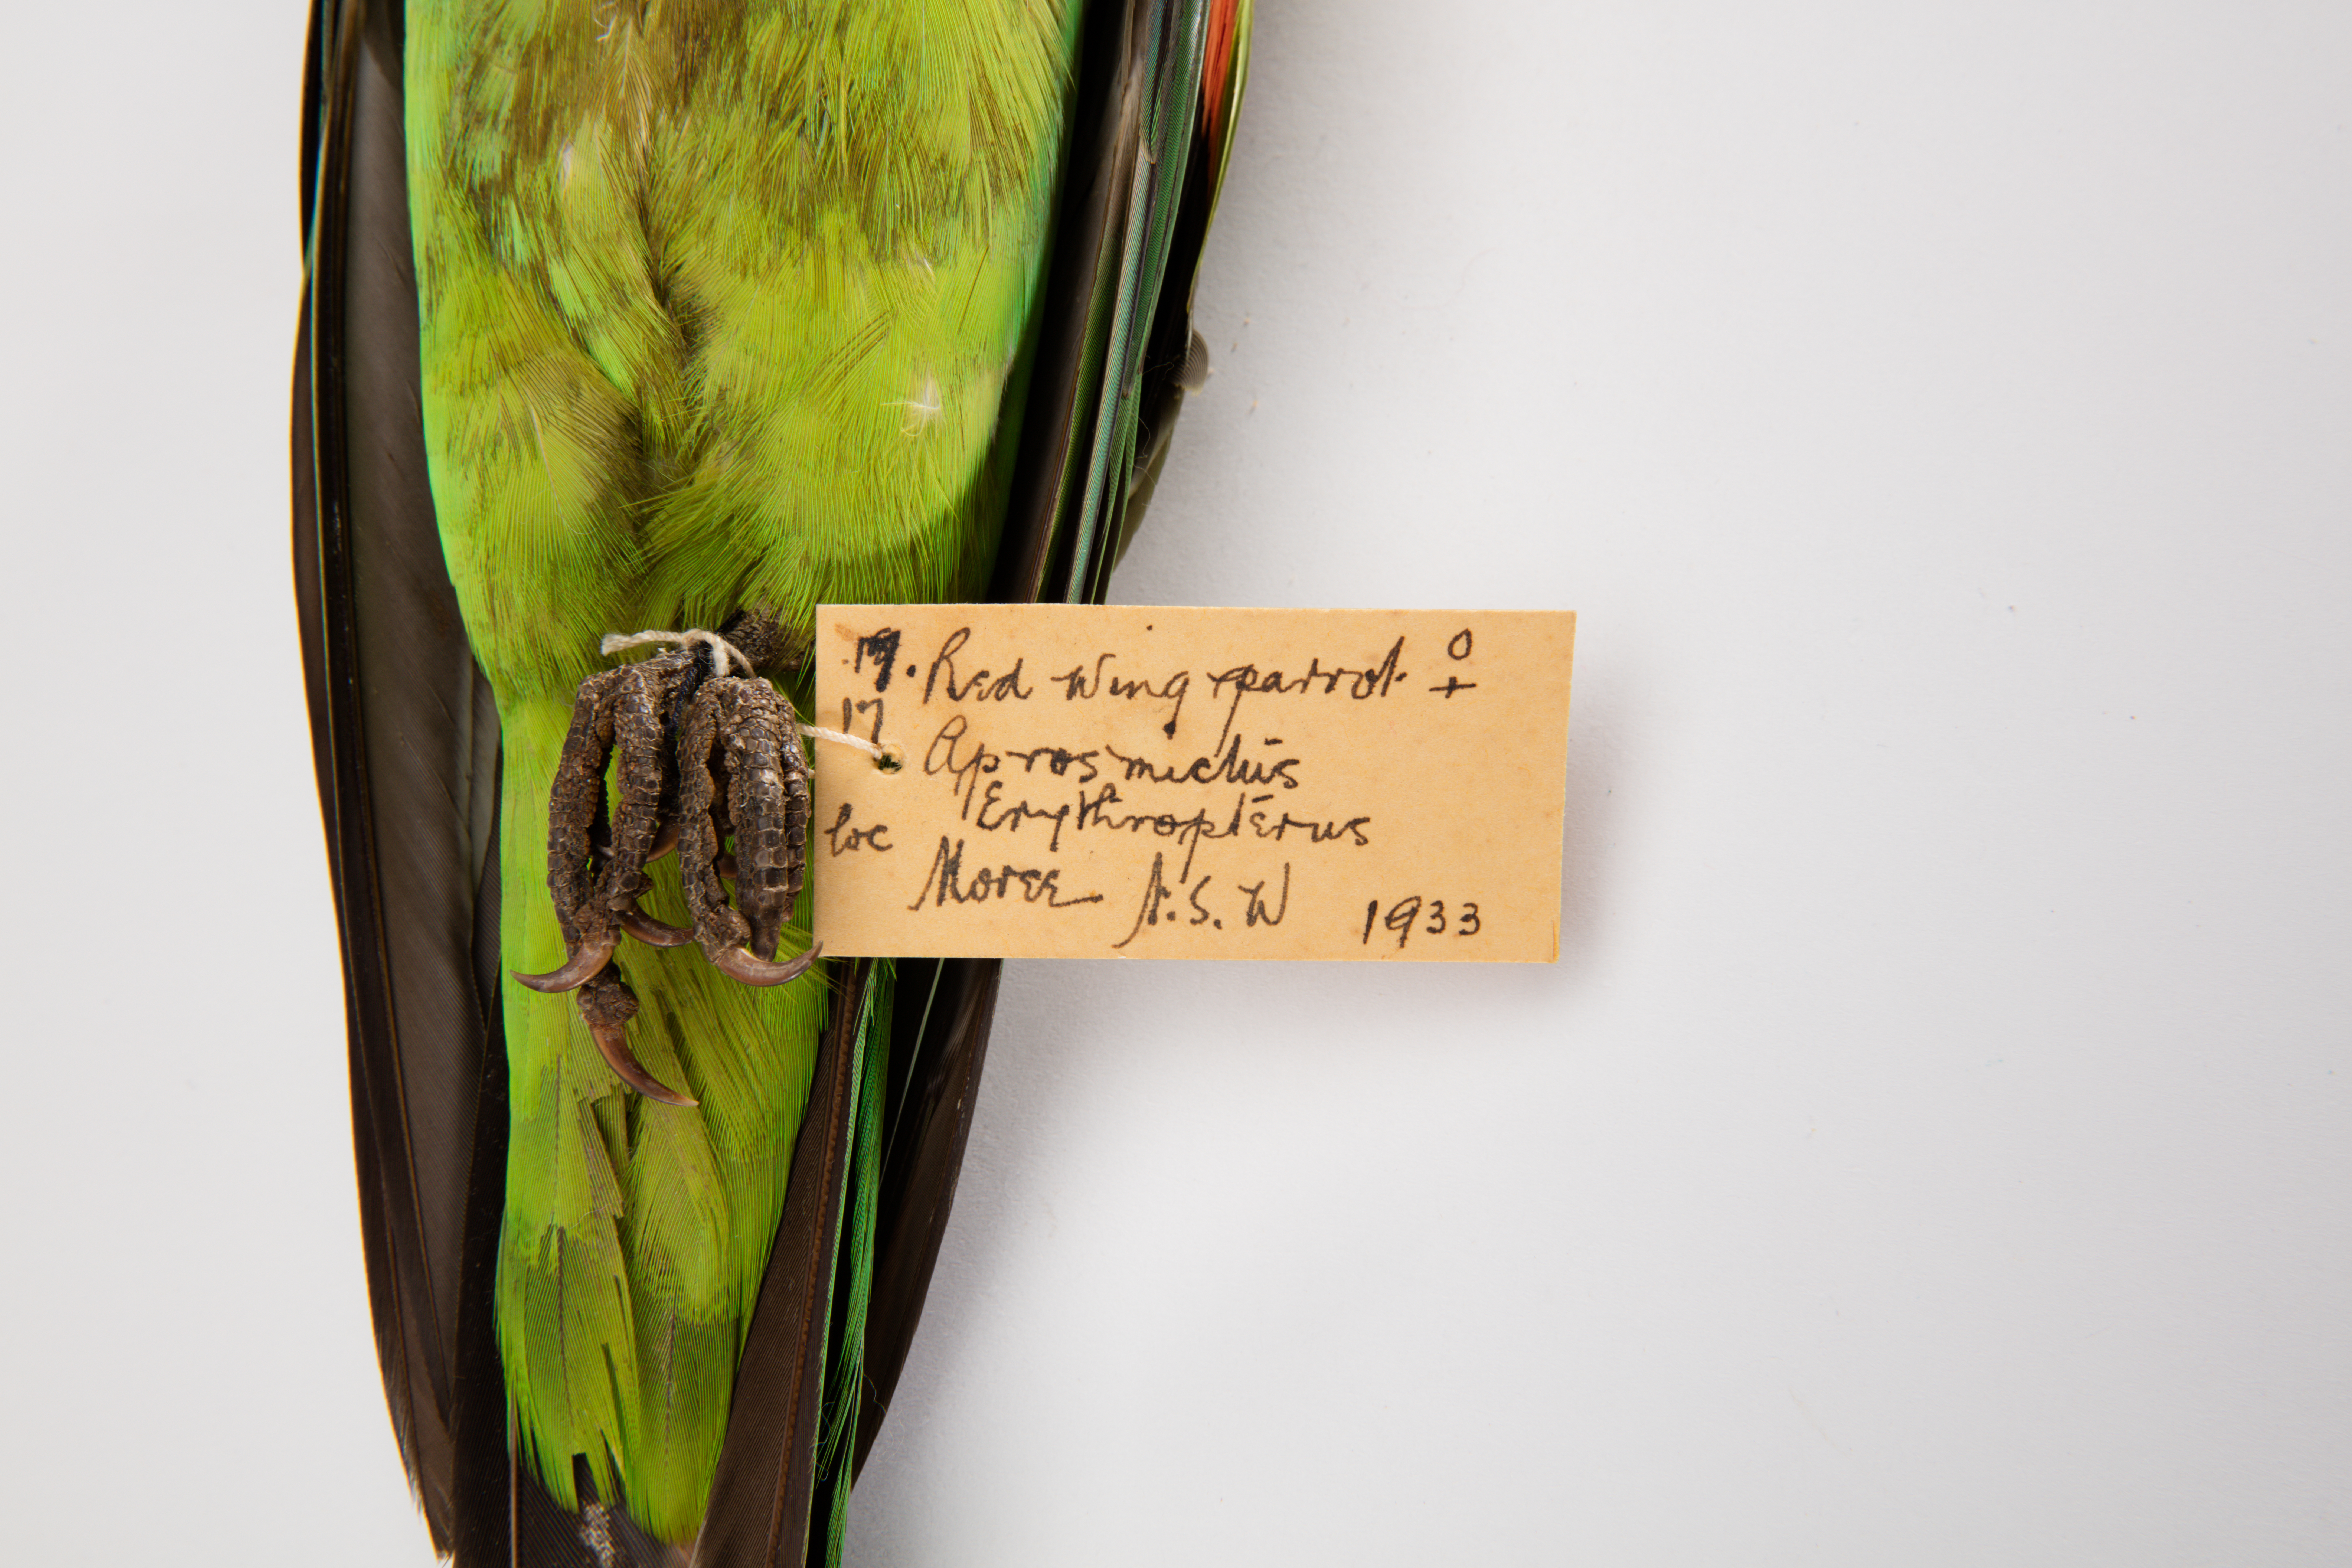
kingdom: Animalia
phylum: Chordata
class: Aves
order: Psittaciformes
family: Psittacidae
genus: Aprosmictus
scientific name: Aprosmictus erythropterus
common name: Red-winged parrot
